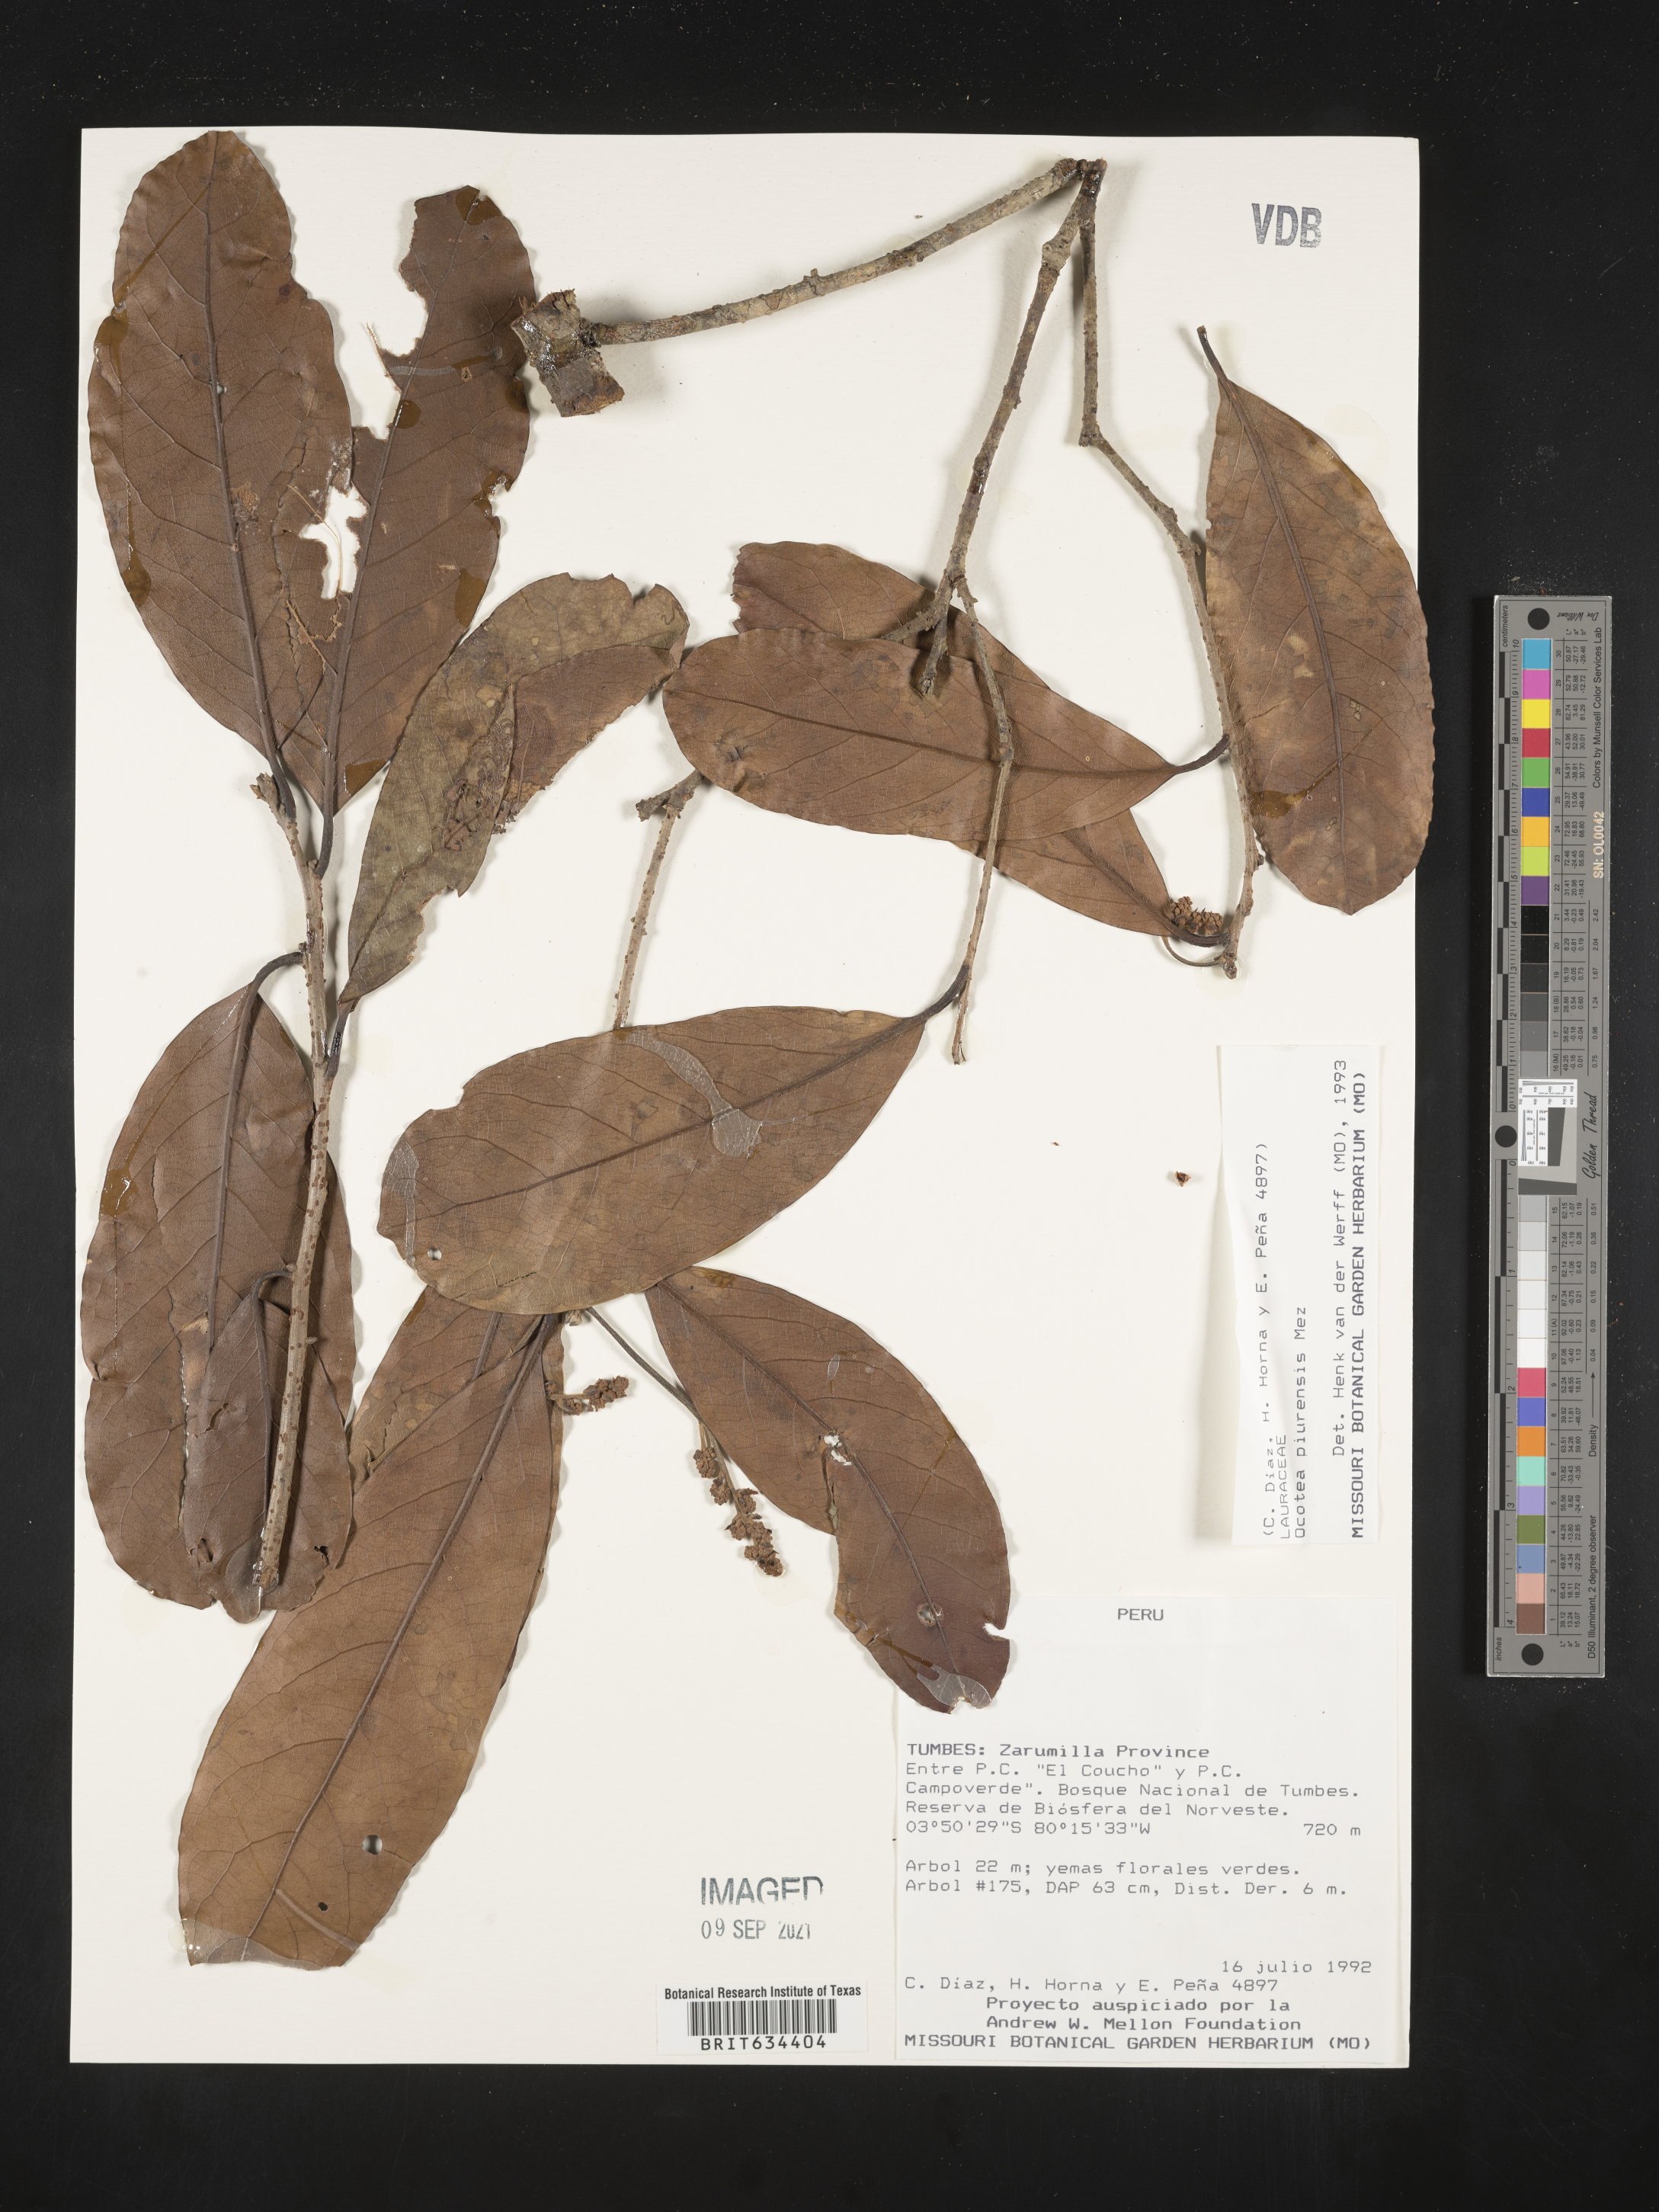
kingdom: Plantae
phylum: Tracheophyta
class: Magnoliopsida
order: Laurales
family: Lauraceae
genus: Ocotea
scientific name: Ocotea
